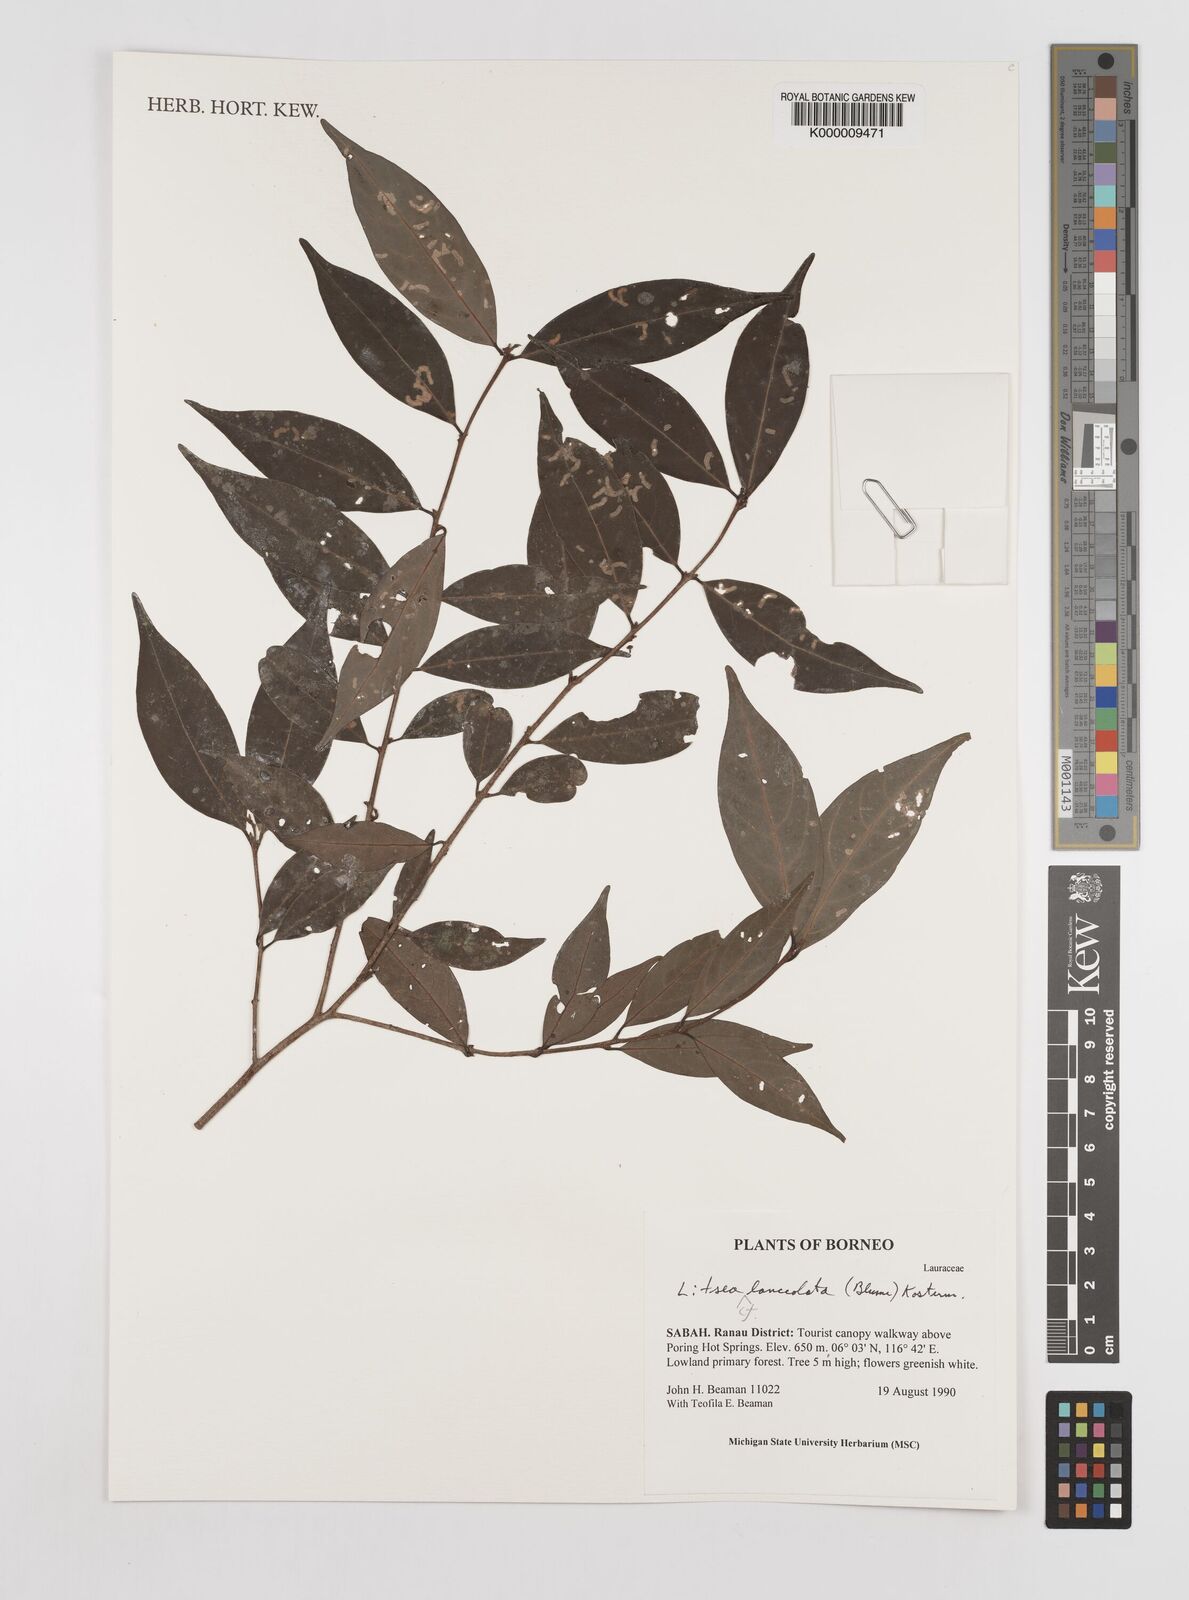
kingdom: Plantae
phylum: Tracheophyta
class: Magnoliopsida
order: Laurales
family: Lauraceae
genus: Litsea
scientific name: Litsea lanceolata
